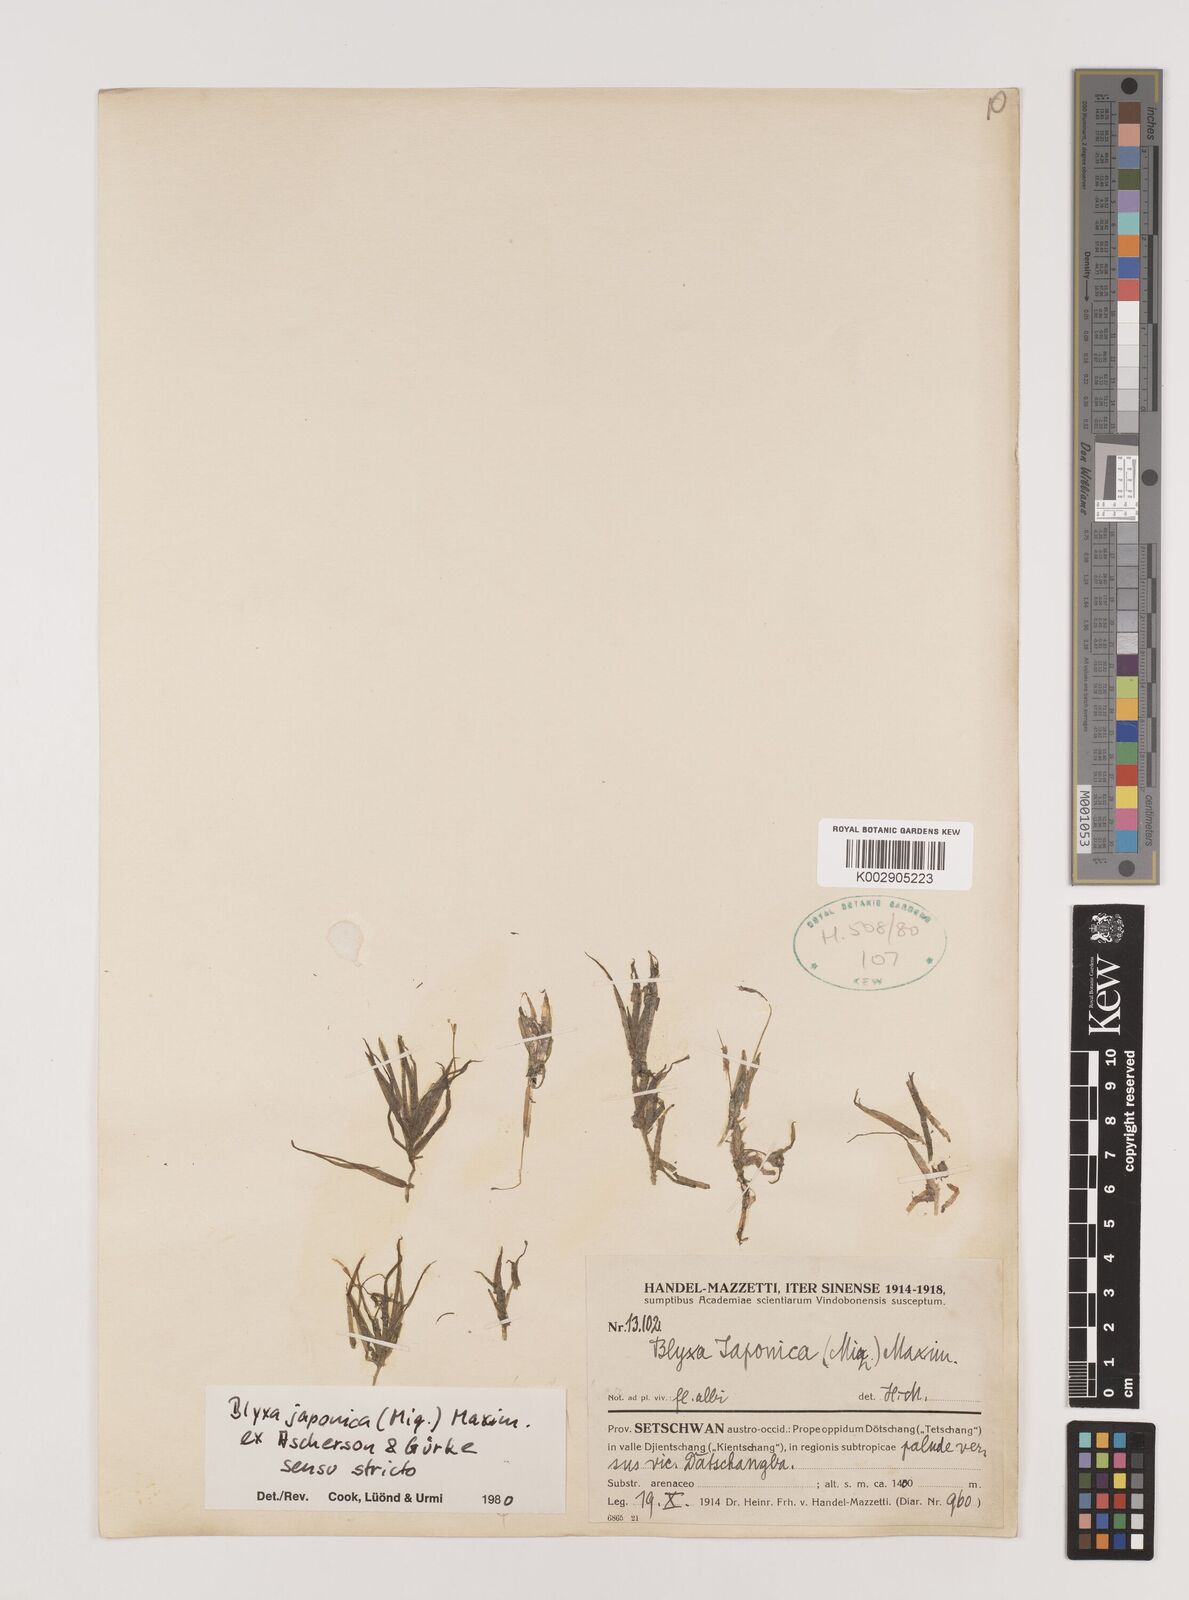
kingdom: Plantae
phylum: Tracheophyta
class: Liliopsida
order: Alismatales
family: Hydrocharitaceae
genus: Blyxa
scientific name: Blyxa japonica
